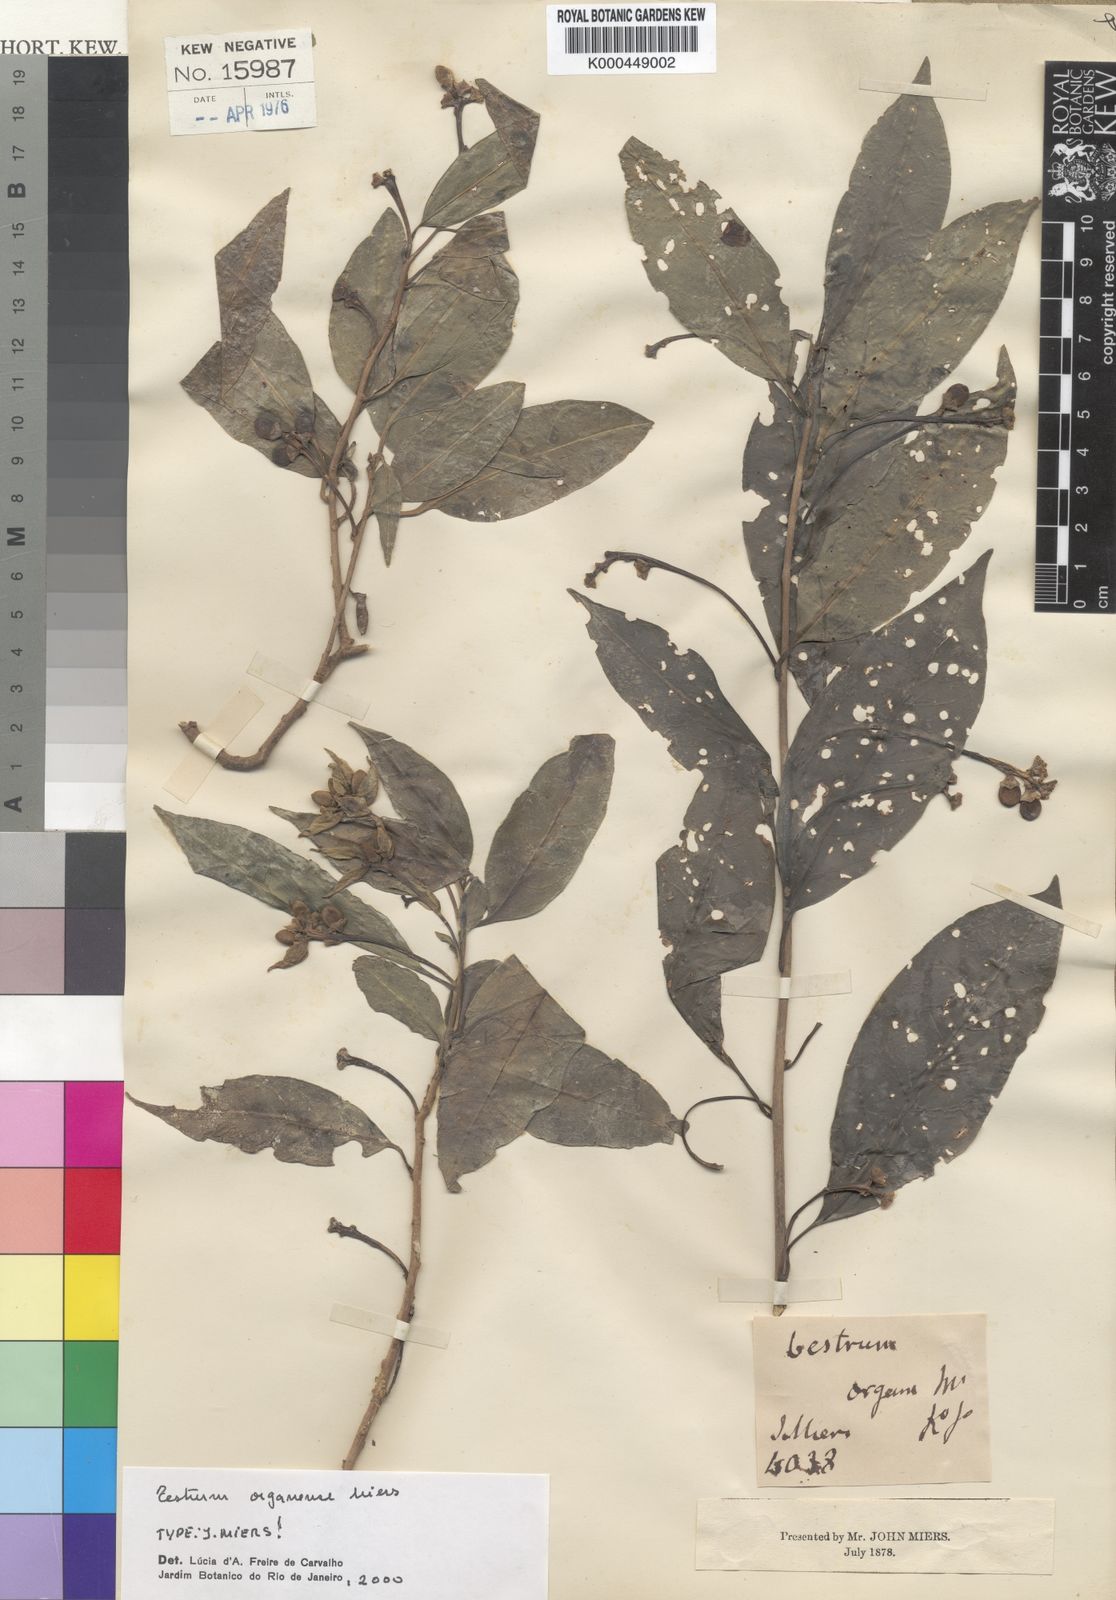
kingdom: Plantae
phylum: Tracheophyta
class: Magnoliopsida
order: Solanales
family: Solanaceae
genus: Cestrum
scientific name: Cestrum bracteatum
